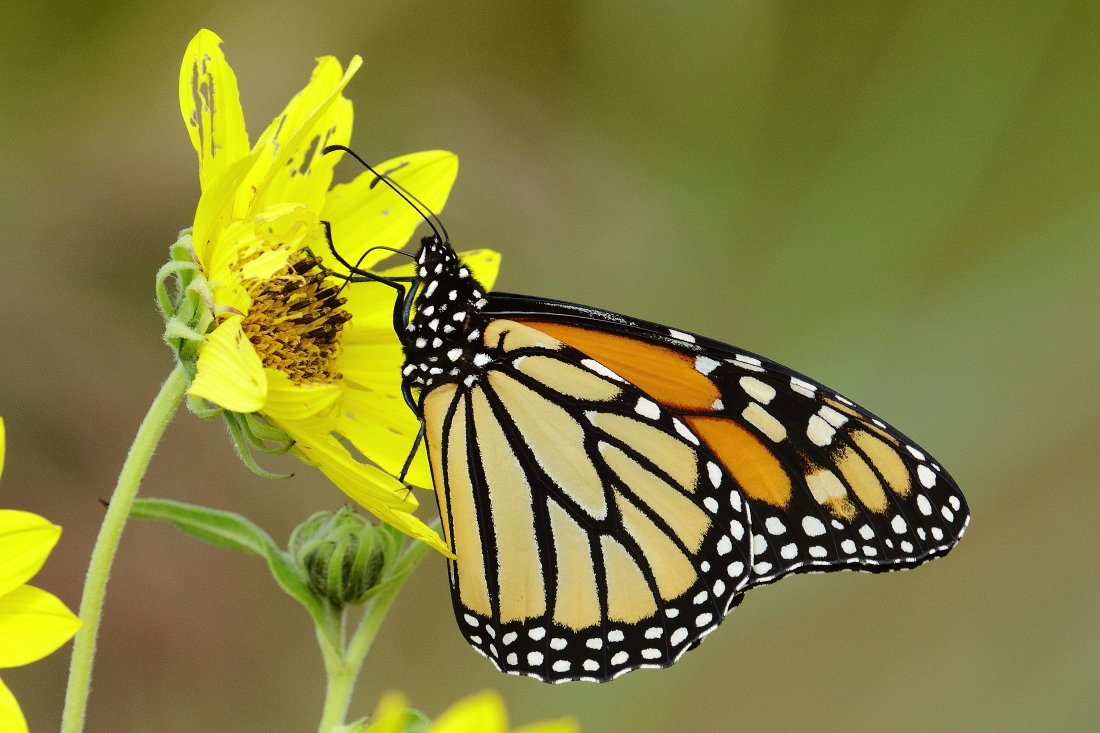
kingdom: Animalia
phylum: Arthropoda
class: Insecta
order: Lepidoptera
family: Nymphalidae
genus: Danaus
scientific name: Danaus plexippus
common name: Monarch
